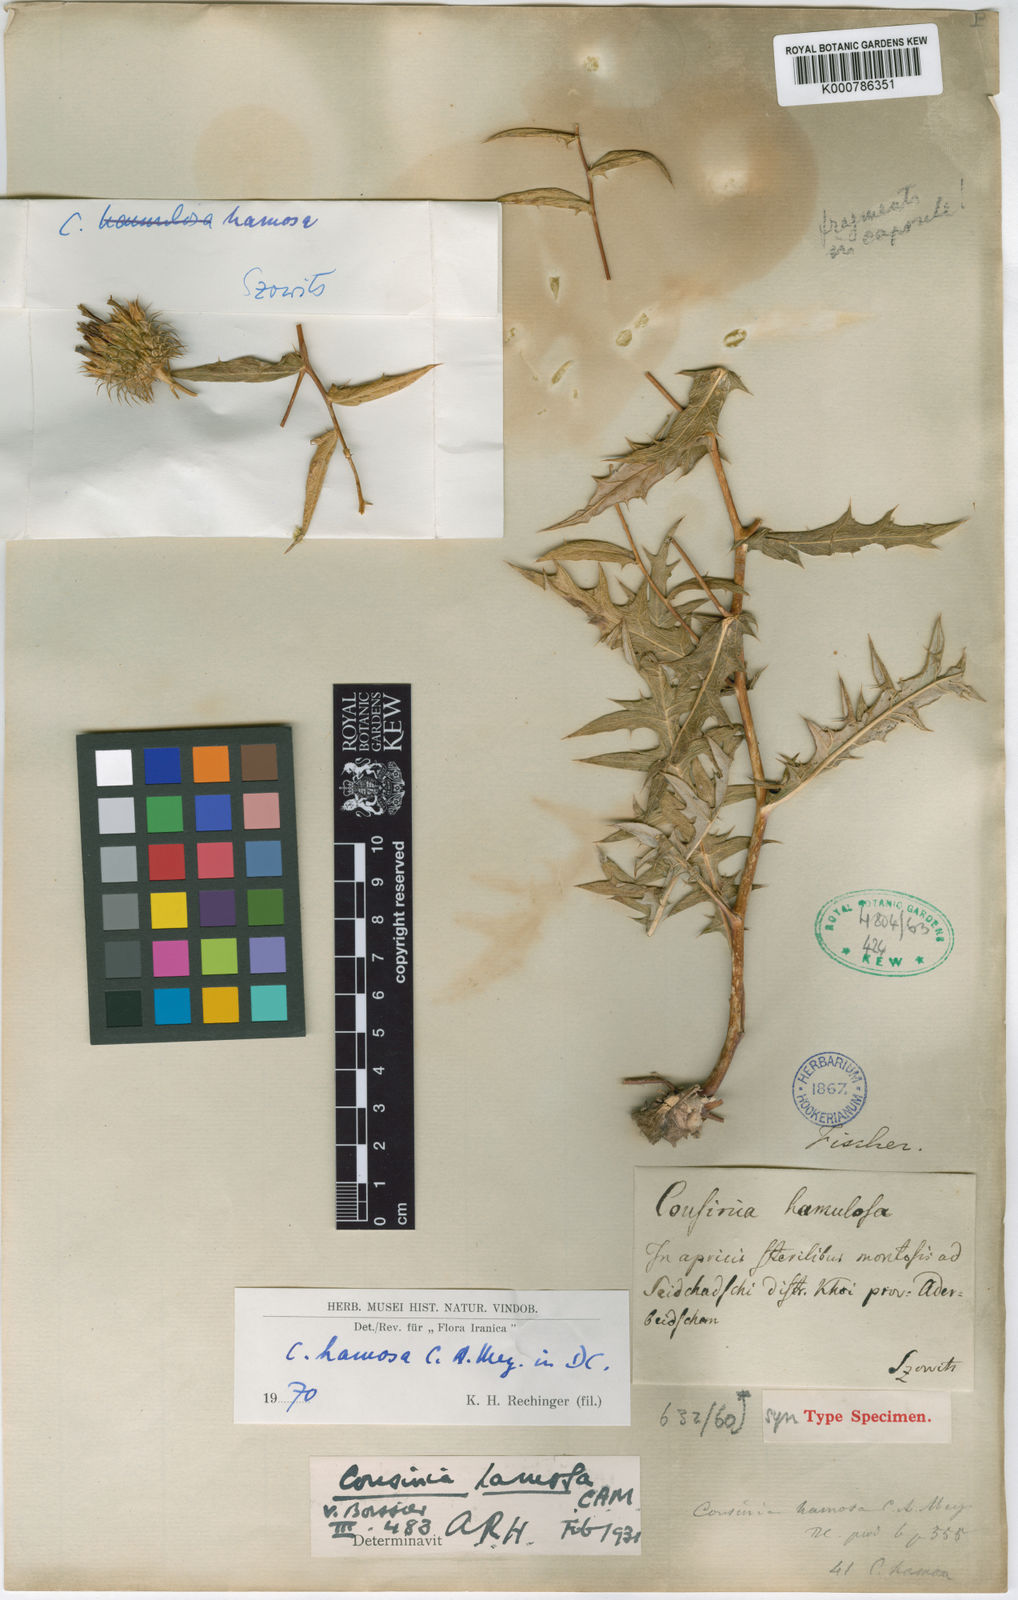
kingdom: Plantae
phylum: Tracheophyta
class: Magnoliopsida
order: Asterales
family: Asteraceae
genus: Cousinia
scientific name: Cousinia hamosa
